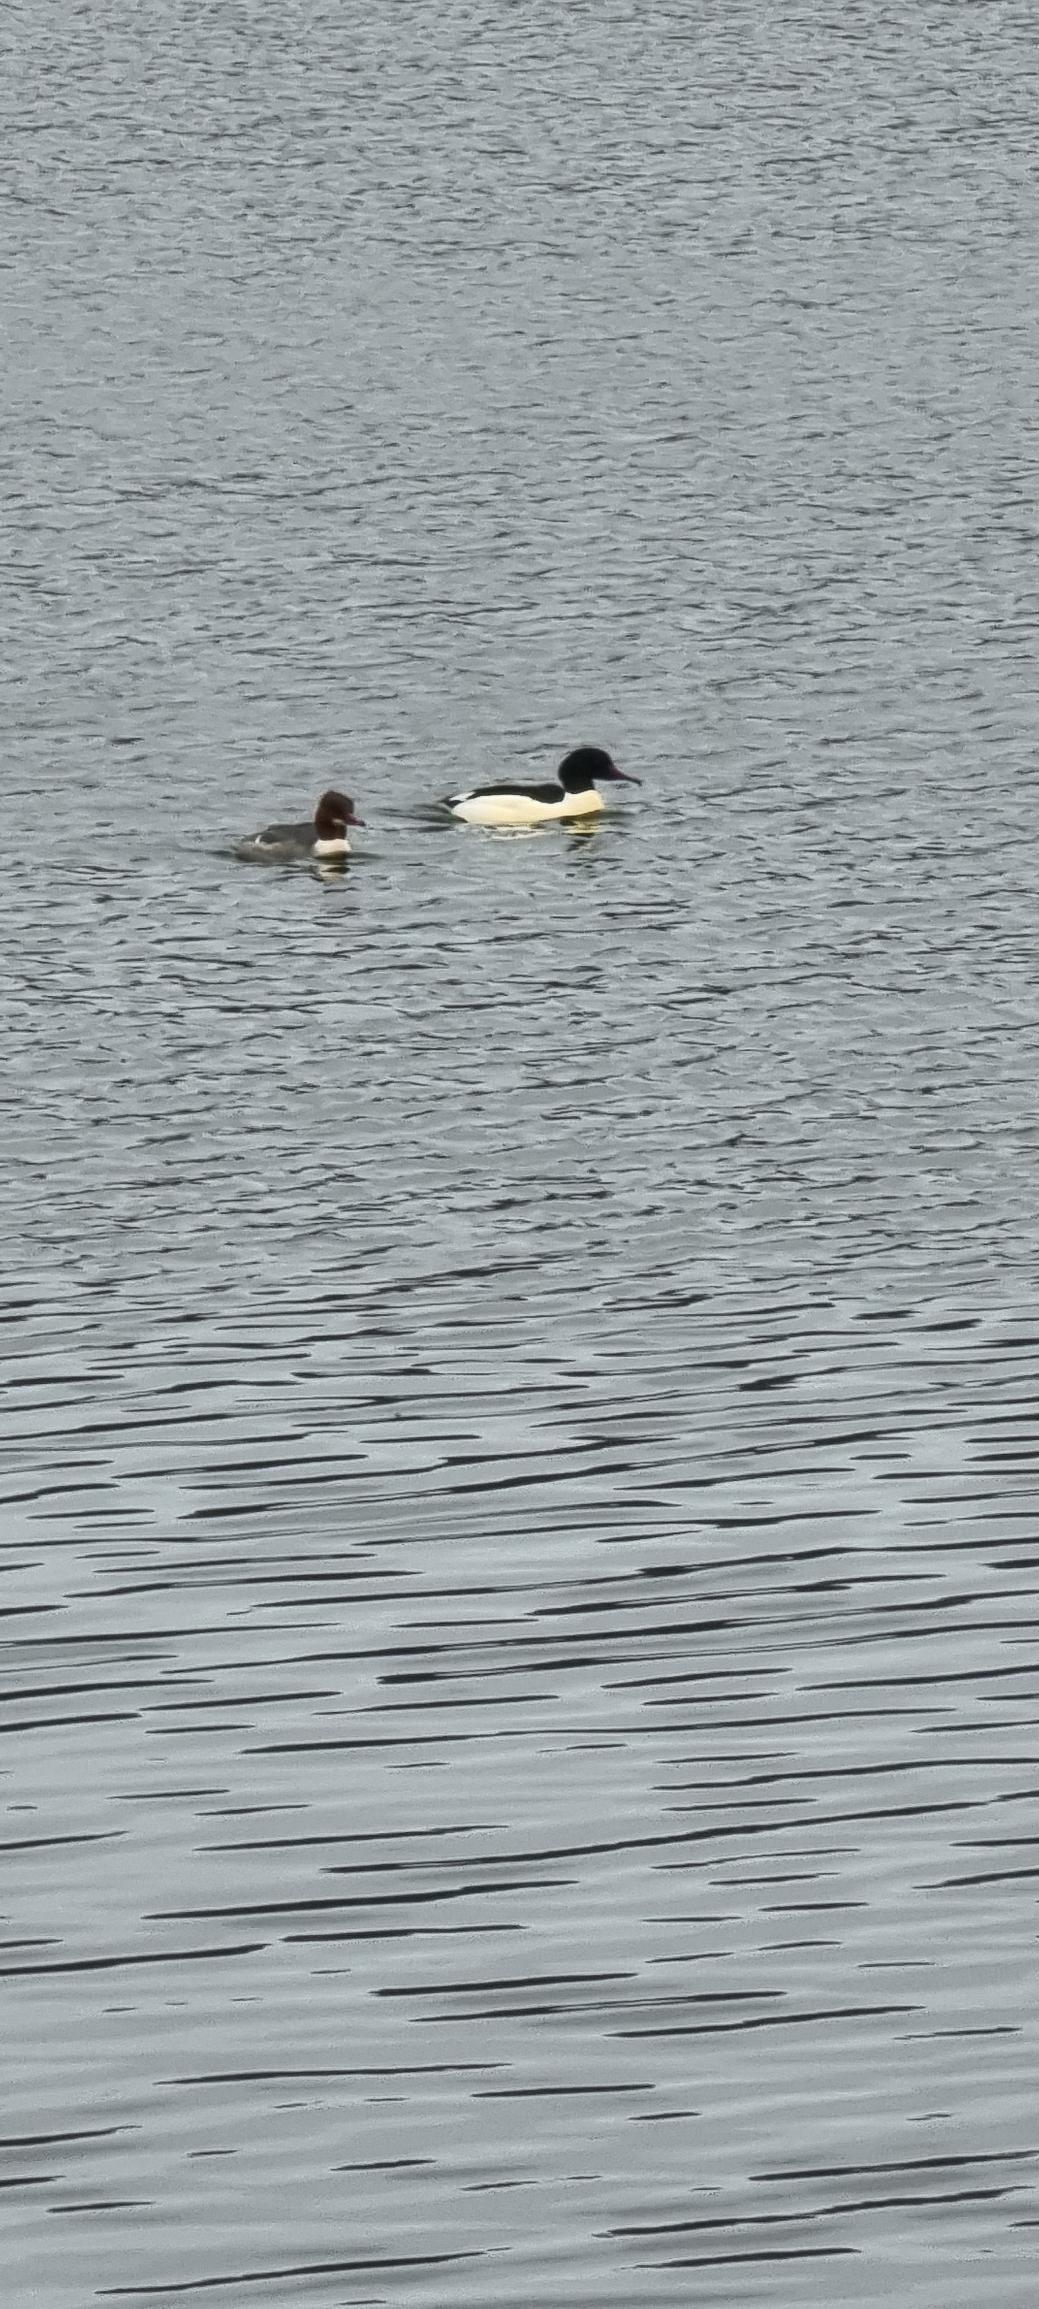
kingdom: Animalia
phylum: Chordata
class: Aves
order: Anseriformes
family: Anatidae
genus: Mergus
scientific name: Mergus merganser
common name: Stor skallesluger
